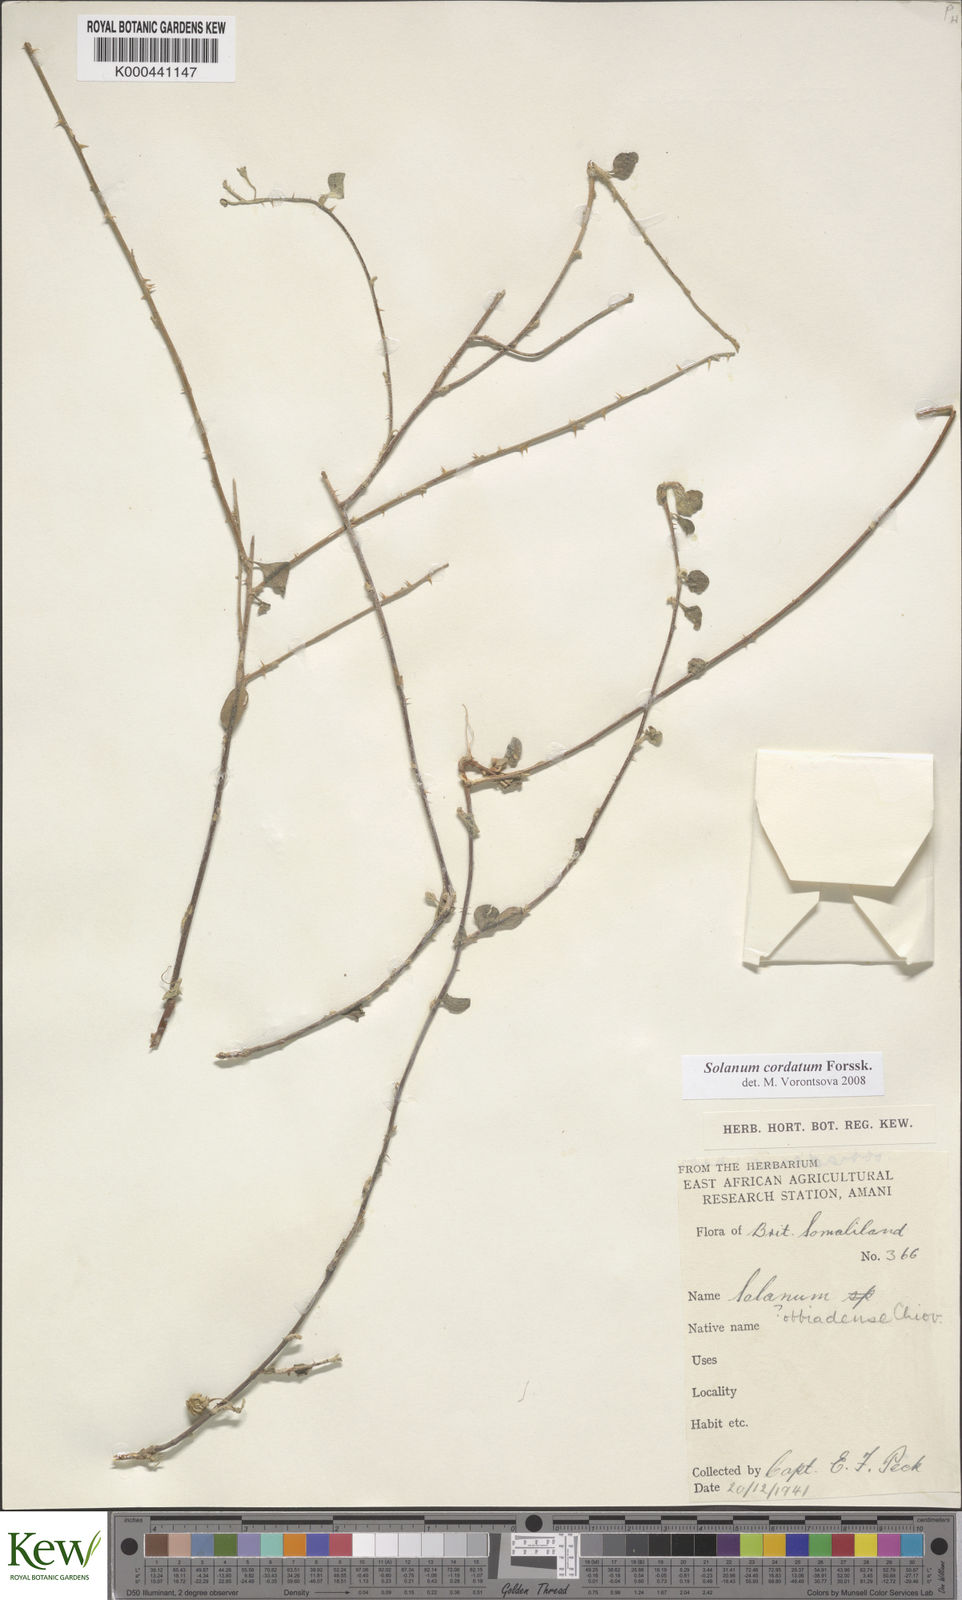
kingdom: Plantae
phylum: Tracheophyta
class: Magnoliopsida
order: Solanales
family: Solanaceae
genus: Solanum
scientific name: Solanum cordatum
